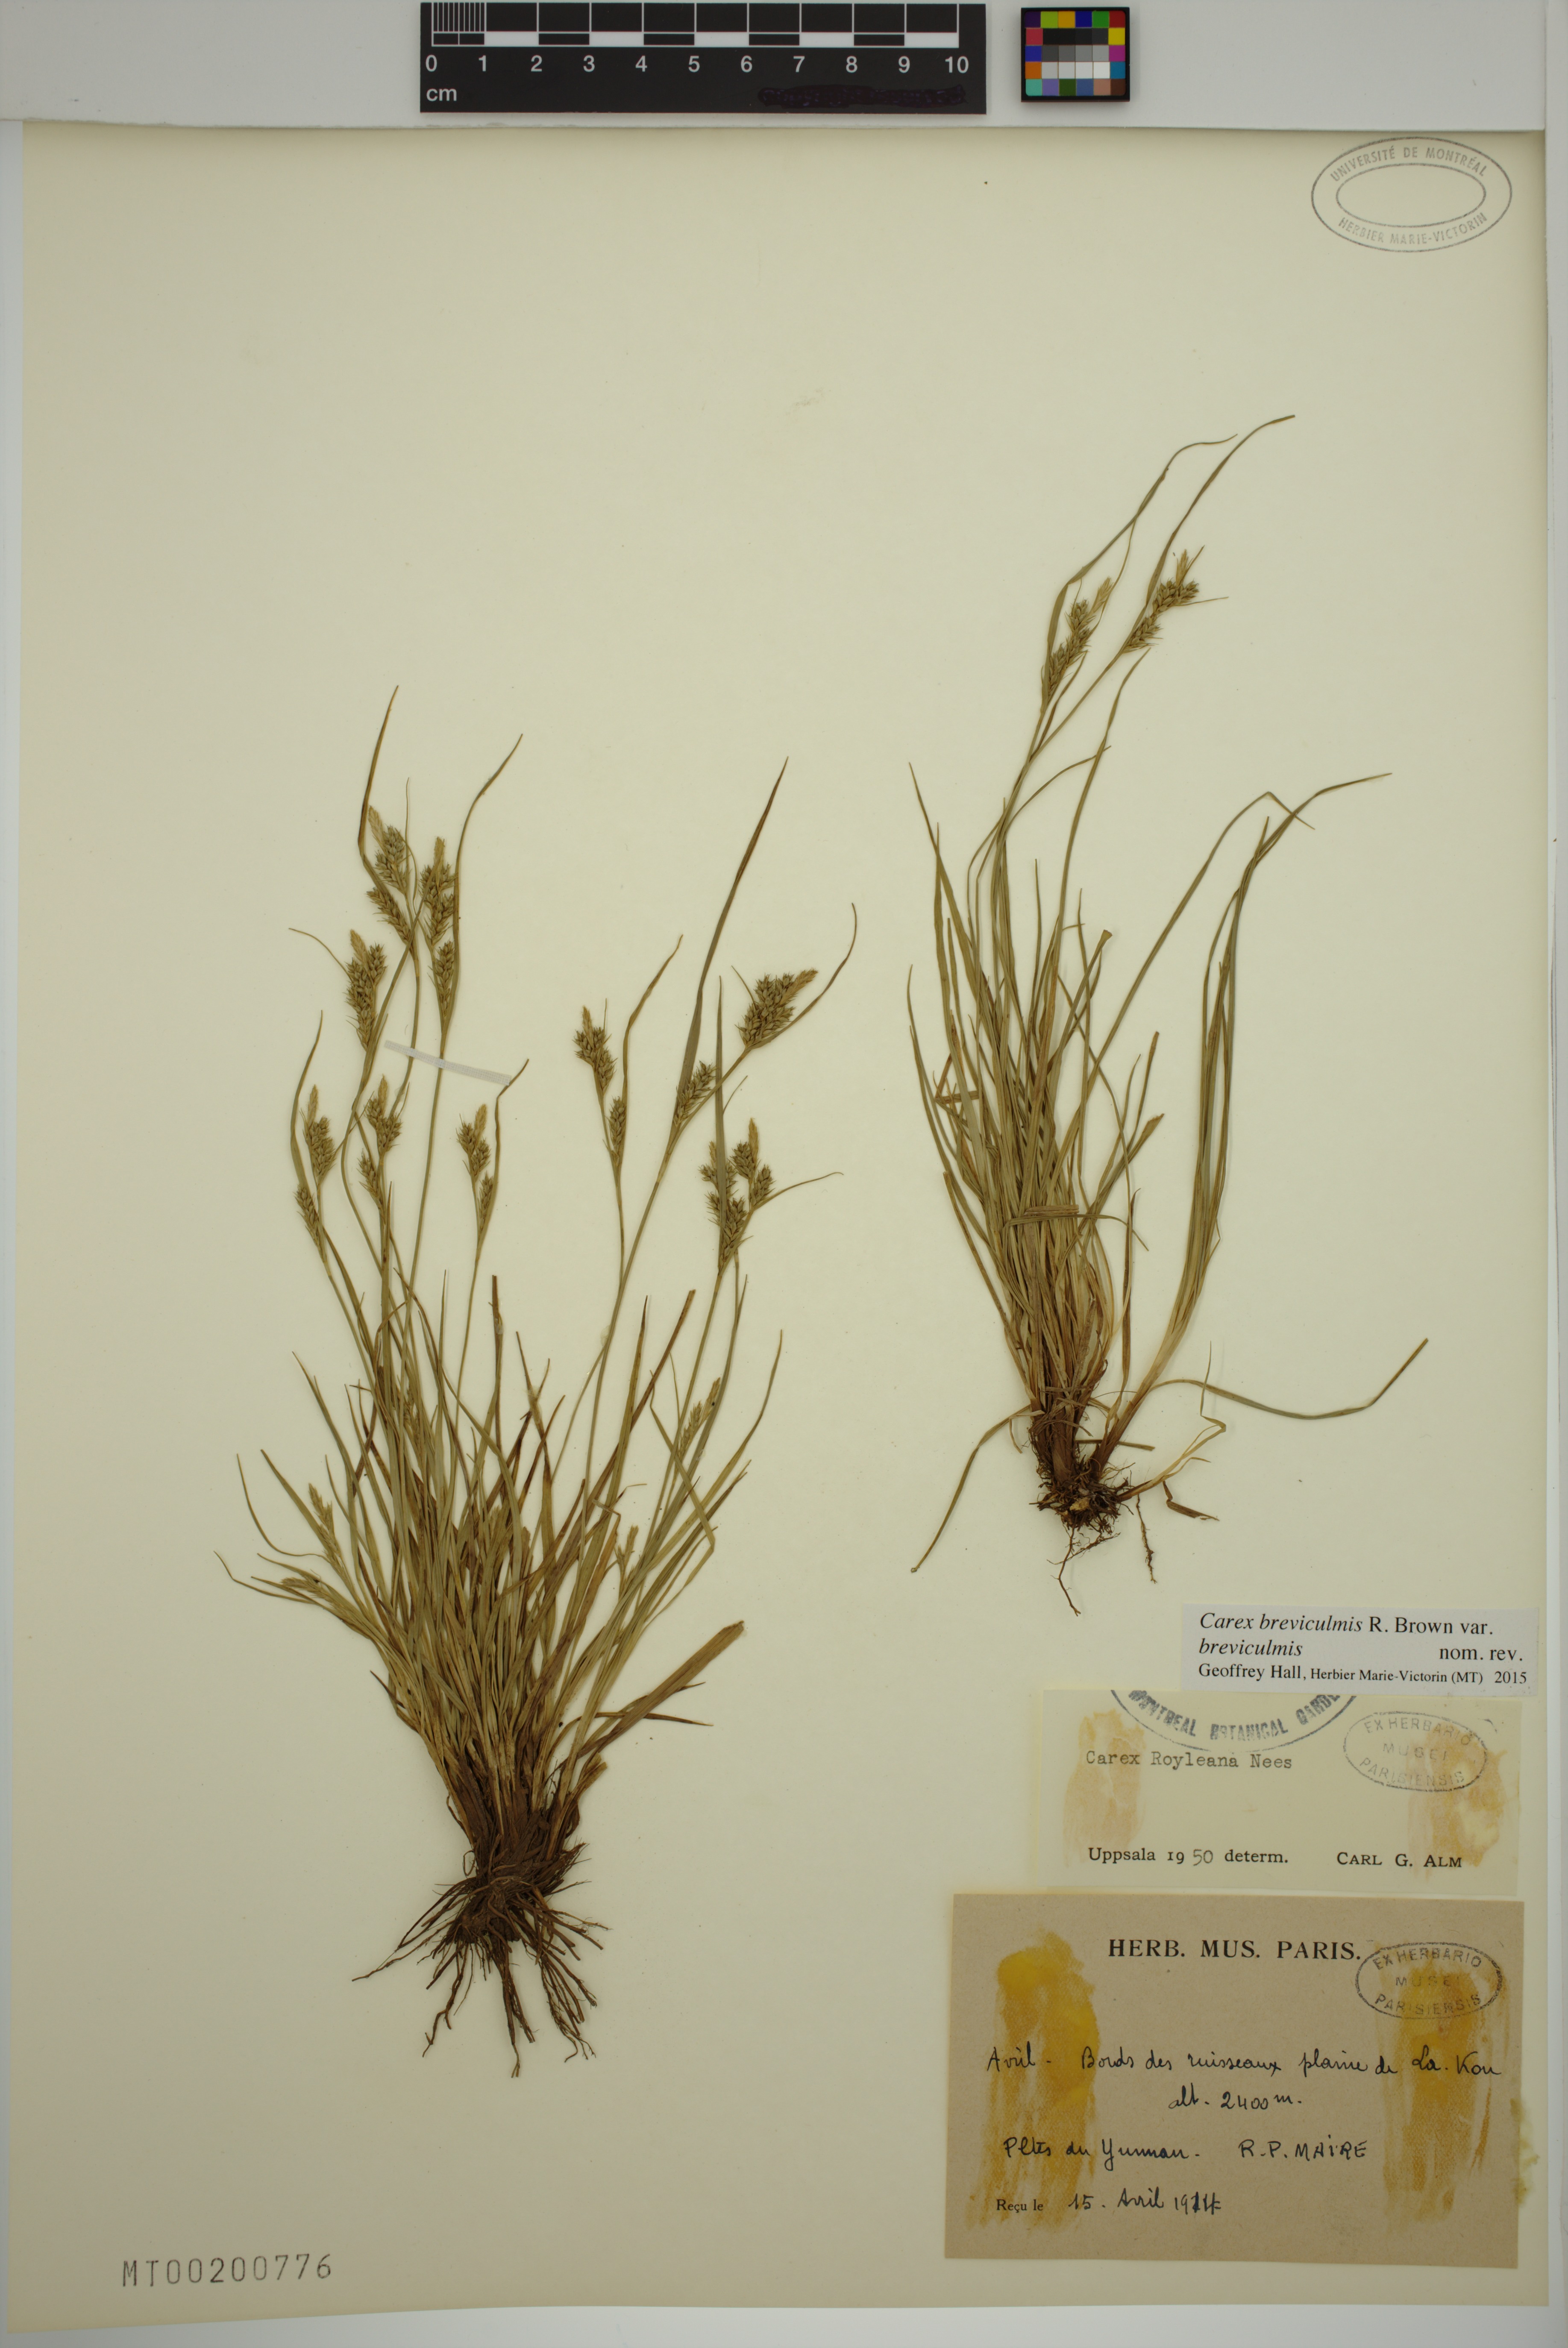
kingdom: Plantae
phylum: Tracheophyta
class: Liliopsida
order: Poales
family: Cyperaceae
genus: Carex
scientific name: Carex breviculmis
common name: Asian shortstem sedge
